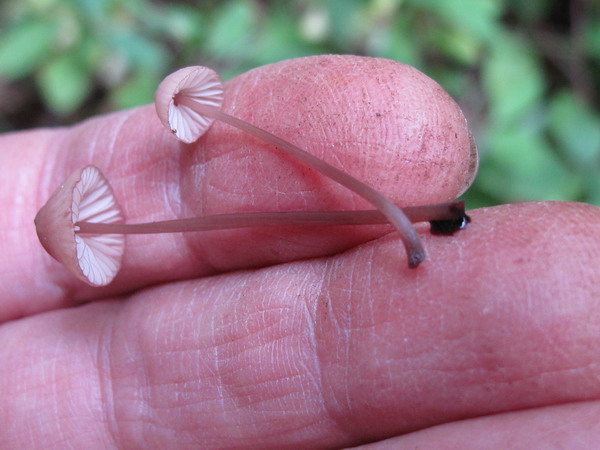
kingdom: Fungi
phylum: Basidiomycota
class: Agaricomycetes
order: Agaricales
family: Mycenaceae
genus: Mycena
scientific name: Mycena sanguinolenta
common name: rødmælket huesvamp
